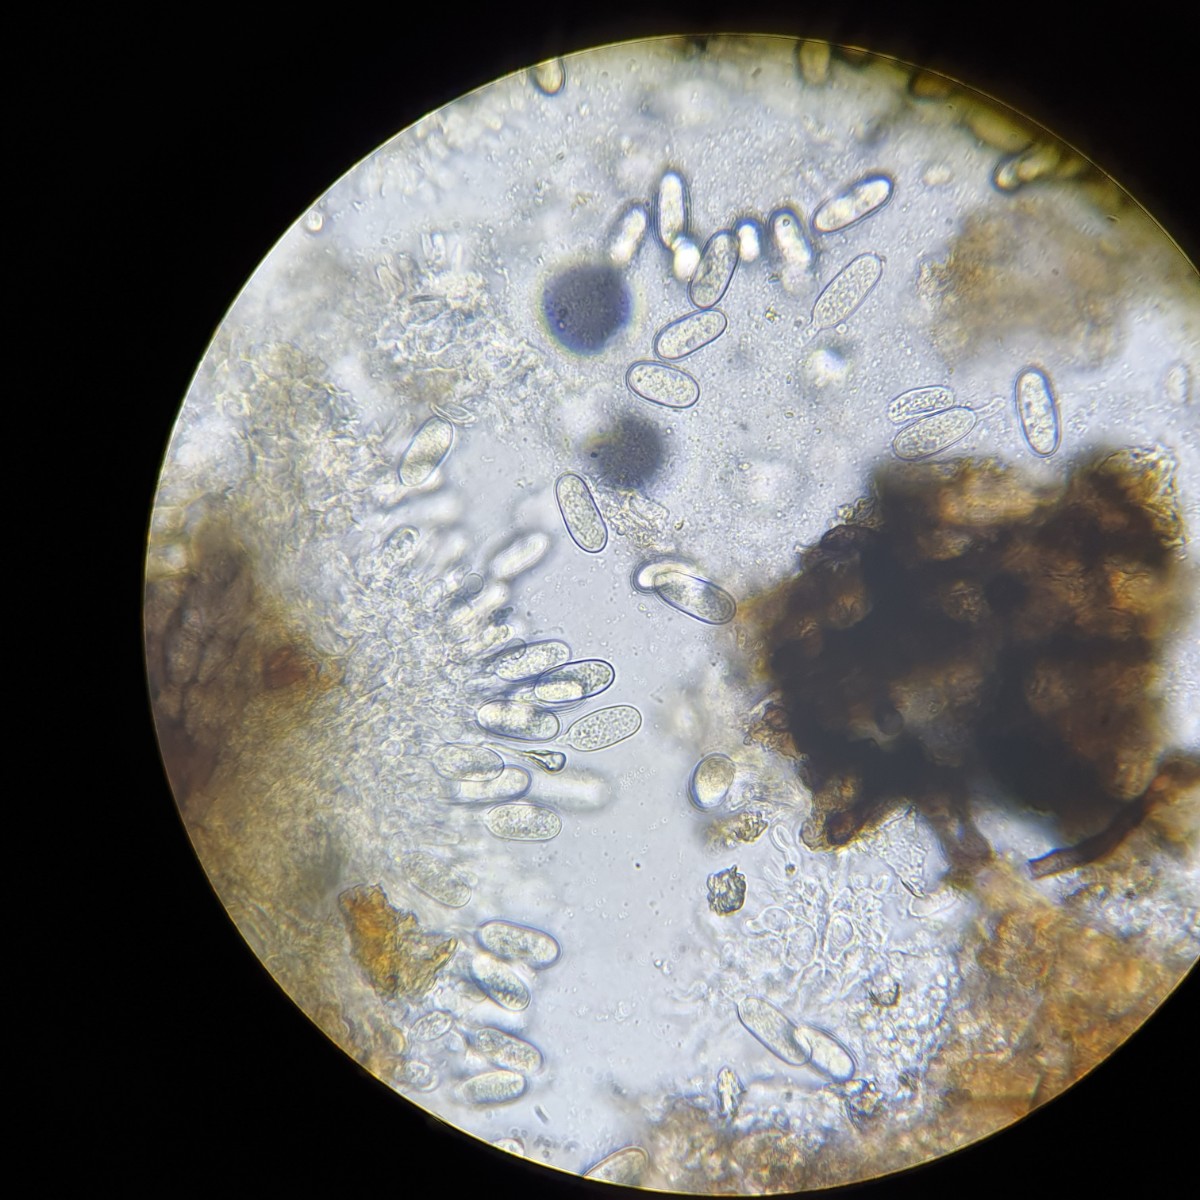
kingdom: Fungi
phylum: Ascomycota
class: Sordariomycetes
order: Diaporthales
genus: Botryodiplodia
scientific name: Botryodiplodia
